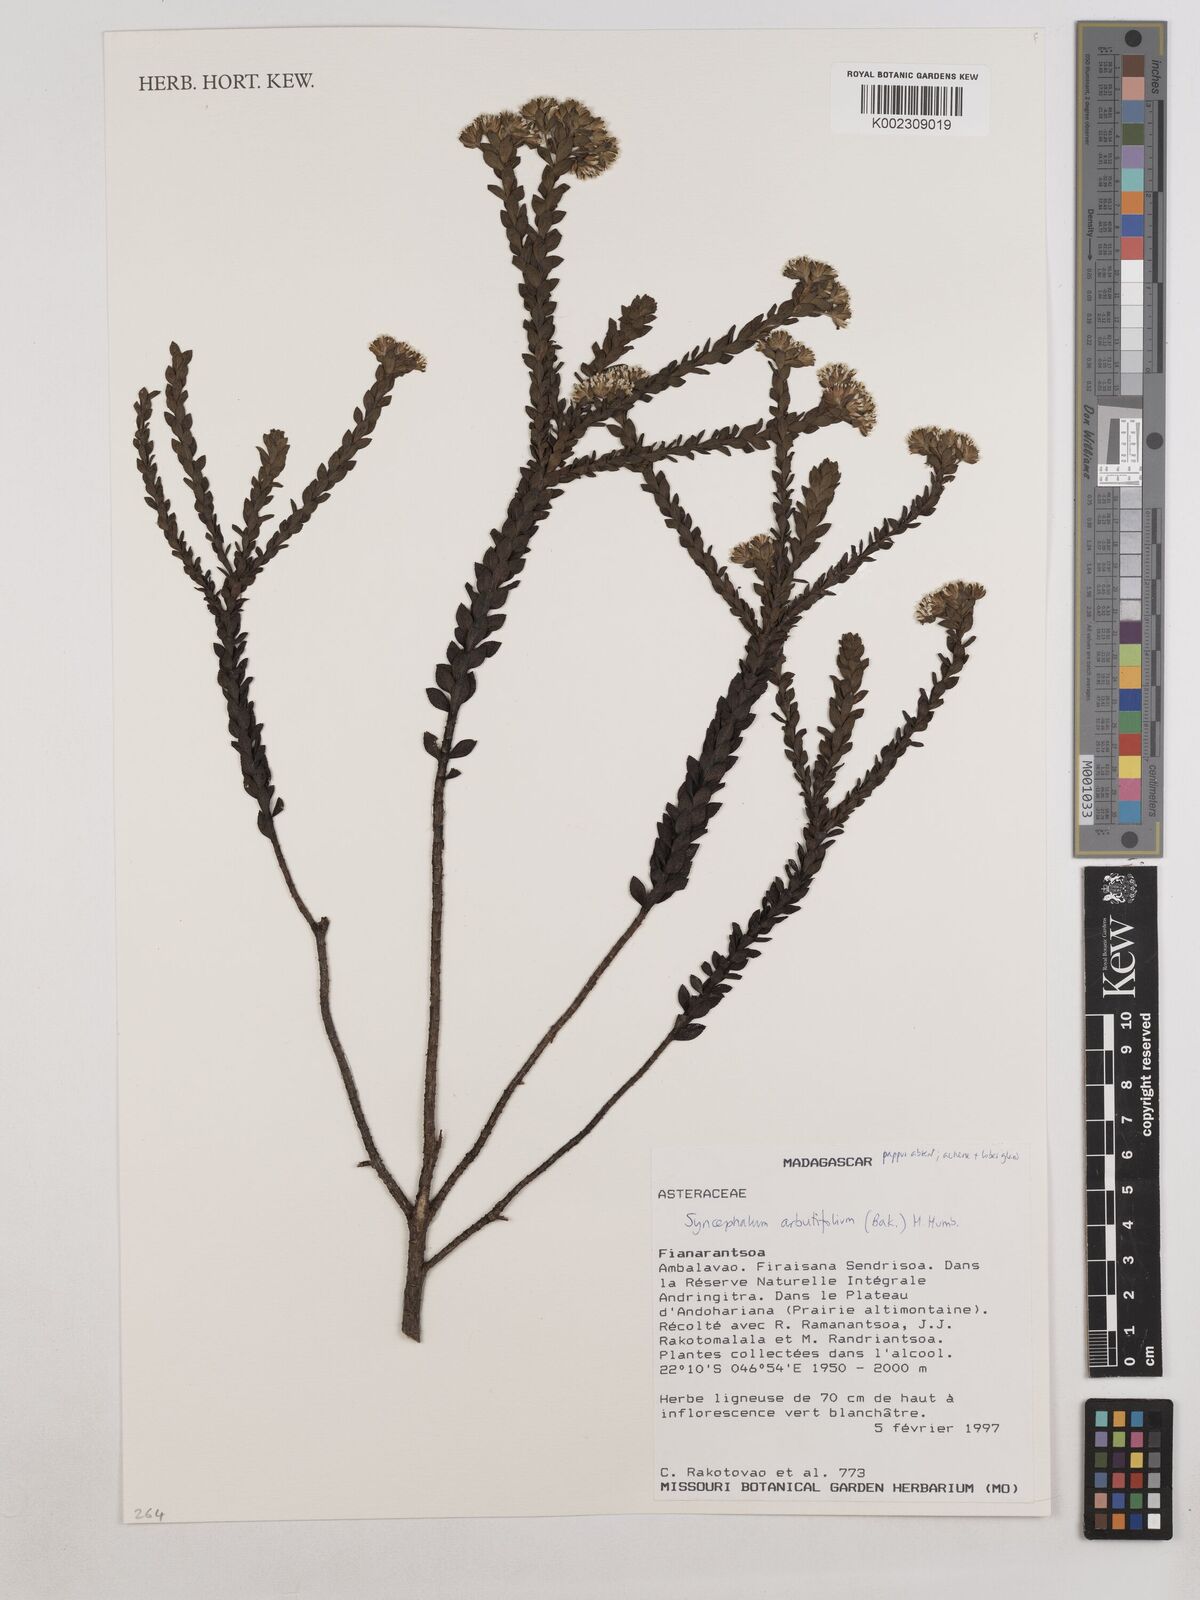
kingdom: Plantae
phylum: Tracheophyta
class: Magnoliopsida
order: Asterales
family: Asteraceae
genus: Syncephalum
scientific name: Syncephalum arbutifolium
